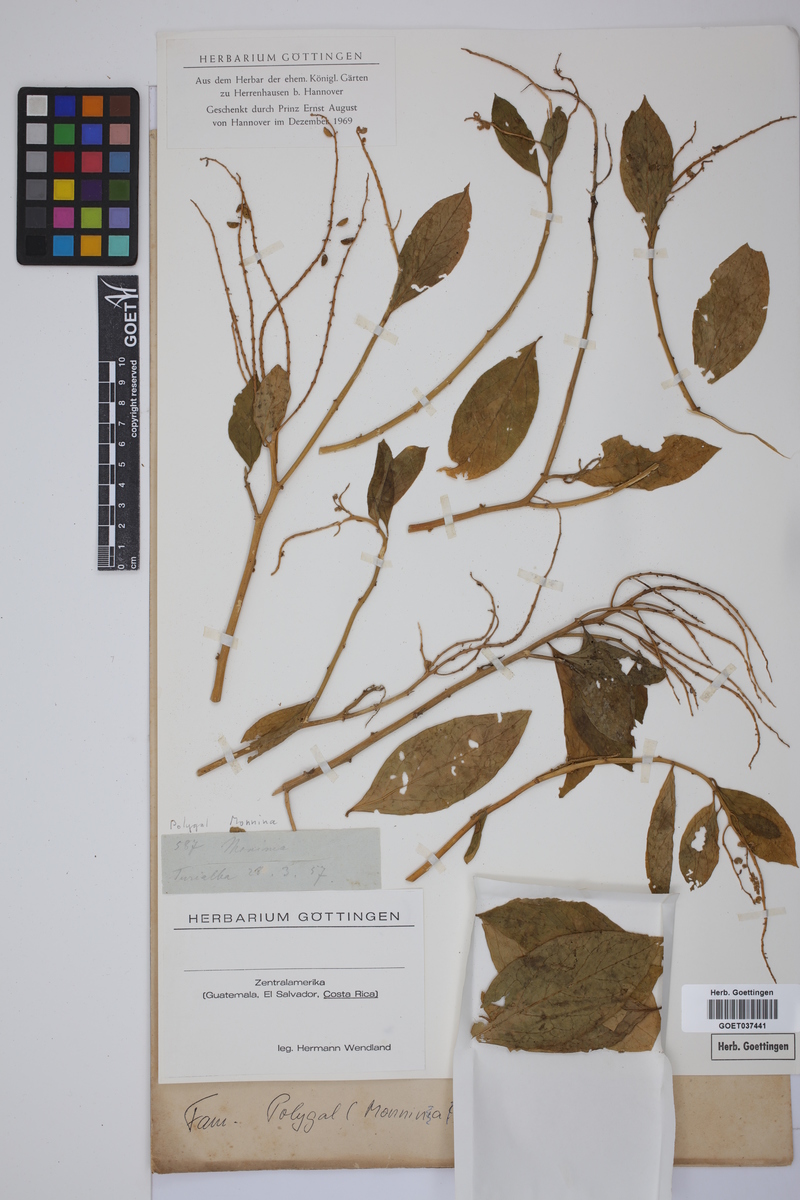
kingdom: Plantae
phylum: Tracheophyta
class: Magnoliopsida
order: Fabales
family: Polygalaceae
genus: Monnina
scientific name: Monnina
